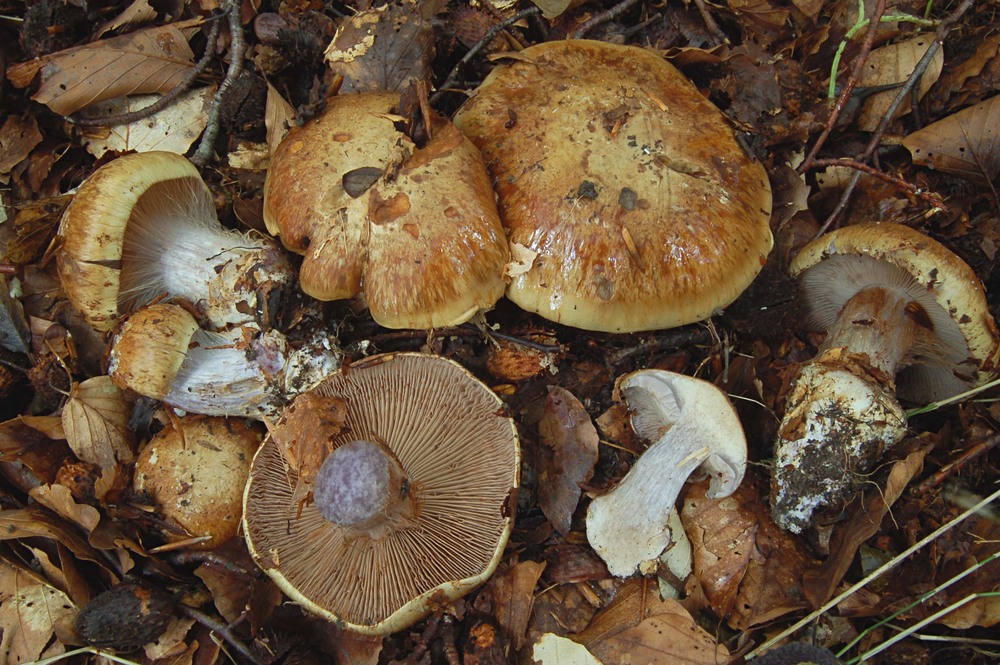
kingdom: Fungi
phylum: Basidiomycota
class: Agaricomycetes
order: Agaricales
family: Cortinariaceae
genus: Phlegmacium
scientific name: Phlegmacium
